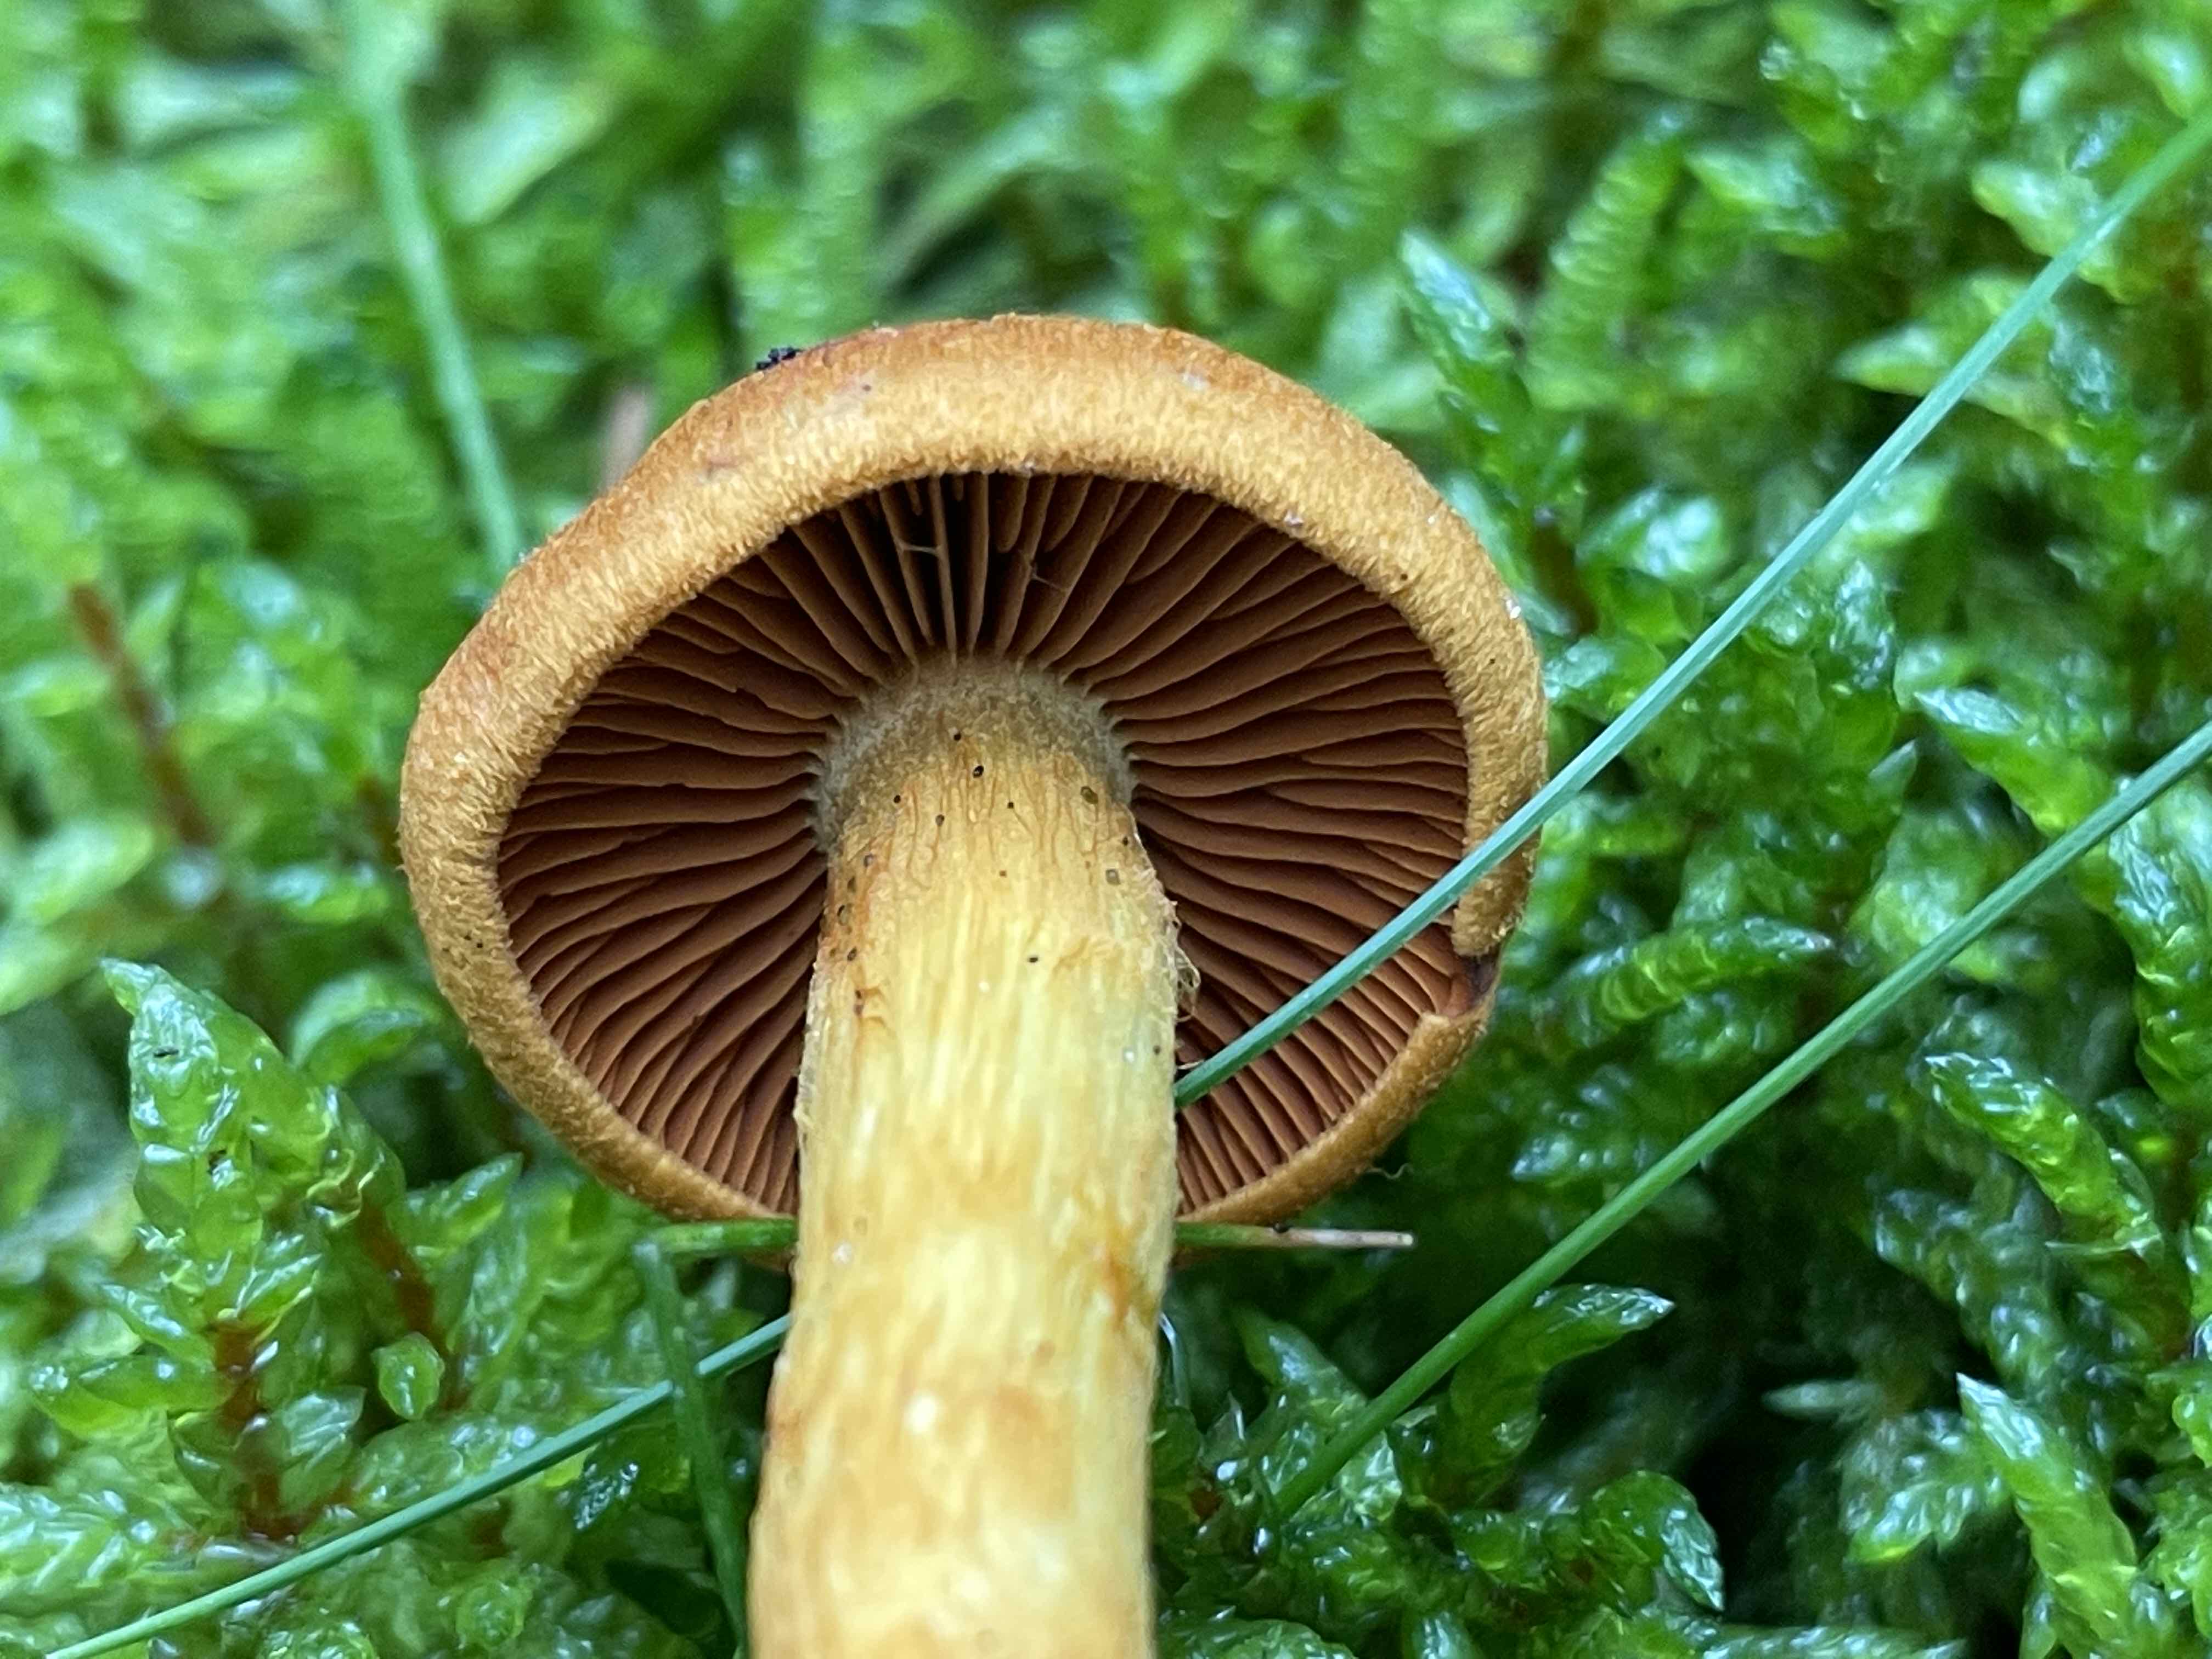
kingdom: Fungi
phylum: Basidiomycota
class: Agaricomycetes
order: Agaricales
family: Cortinariaceae
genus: Cortinarius
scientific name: Cortinarius malicorius
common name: grønkødet slørhat
